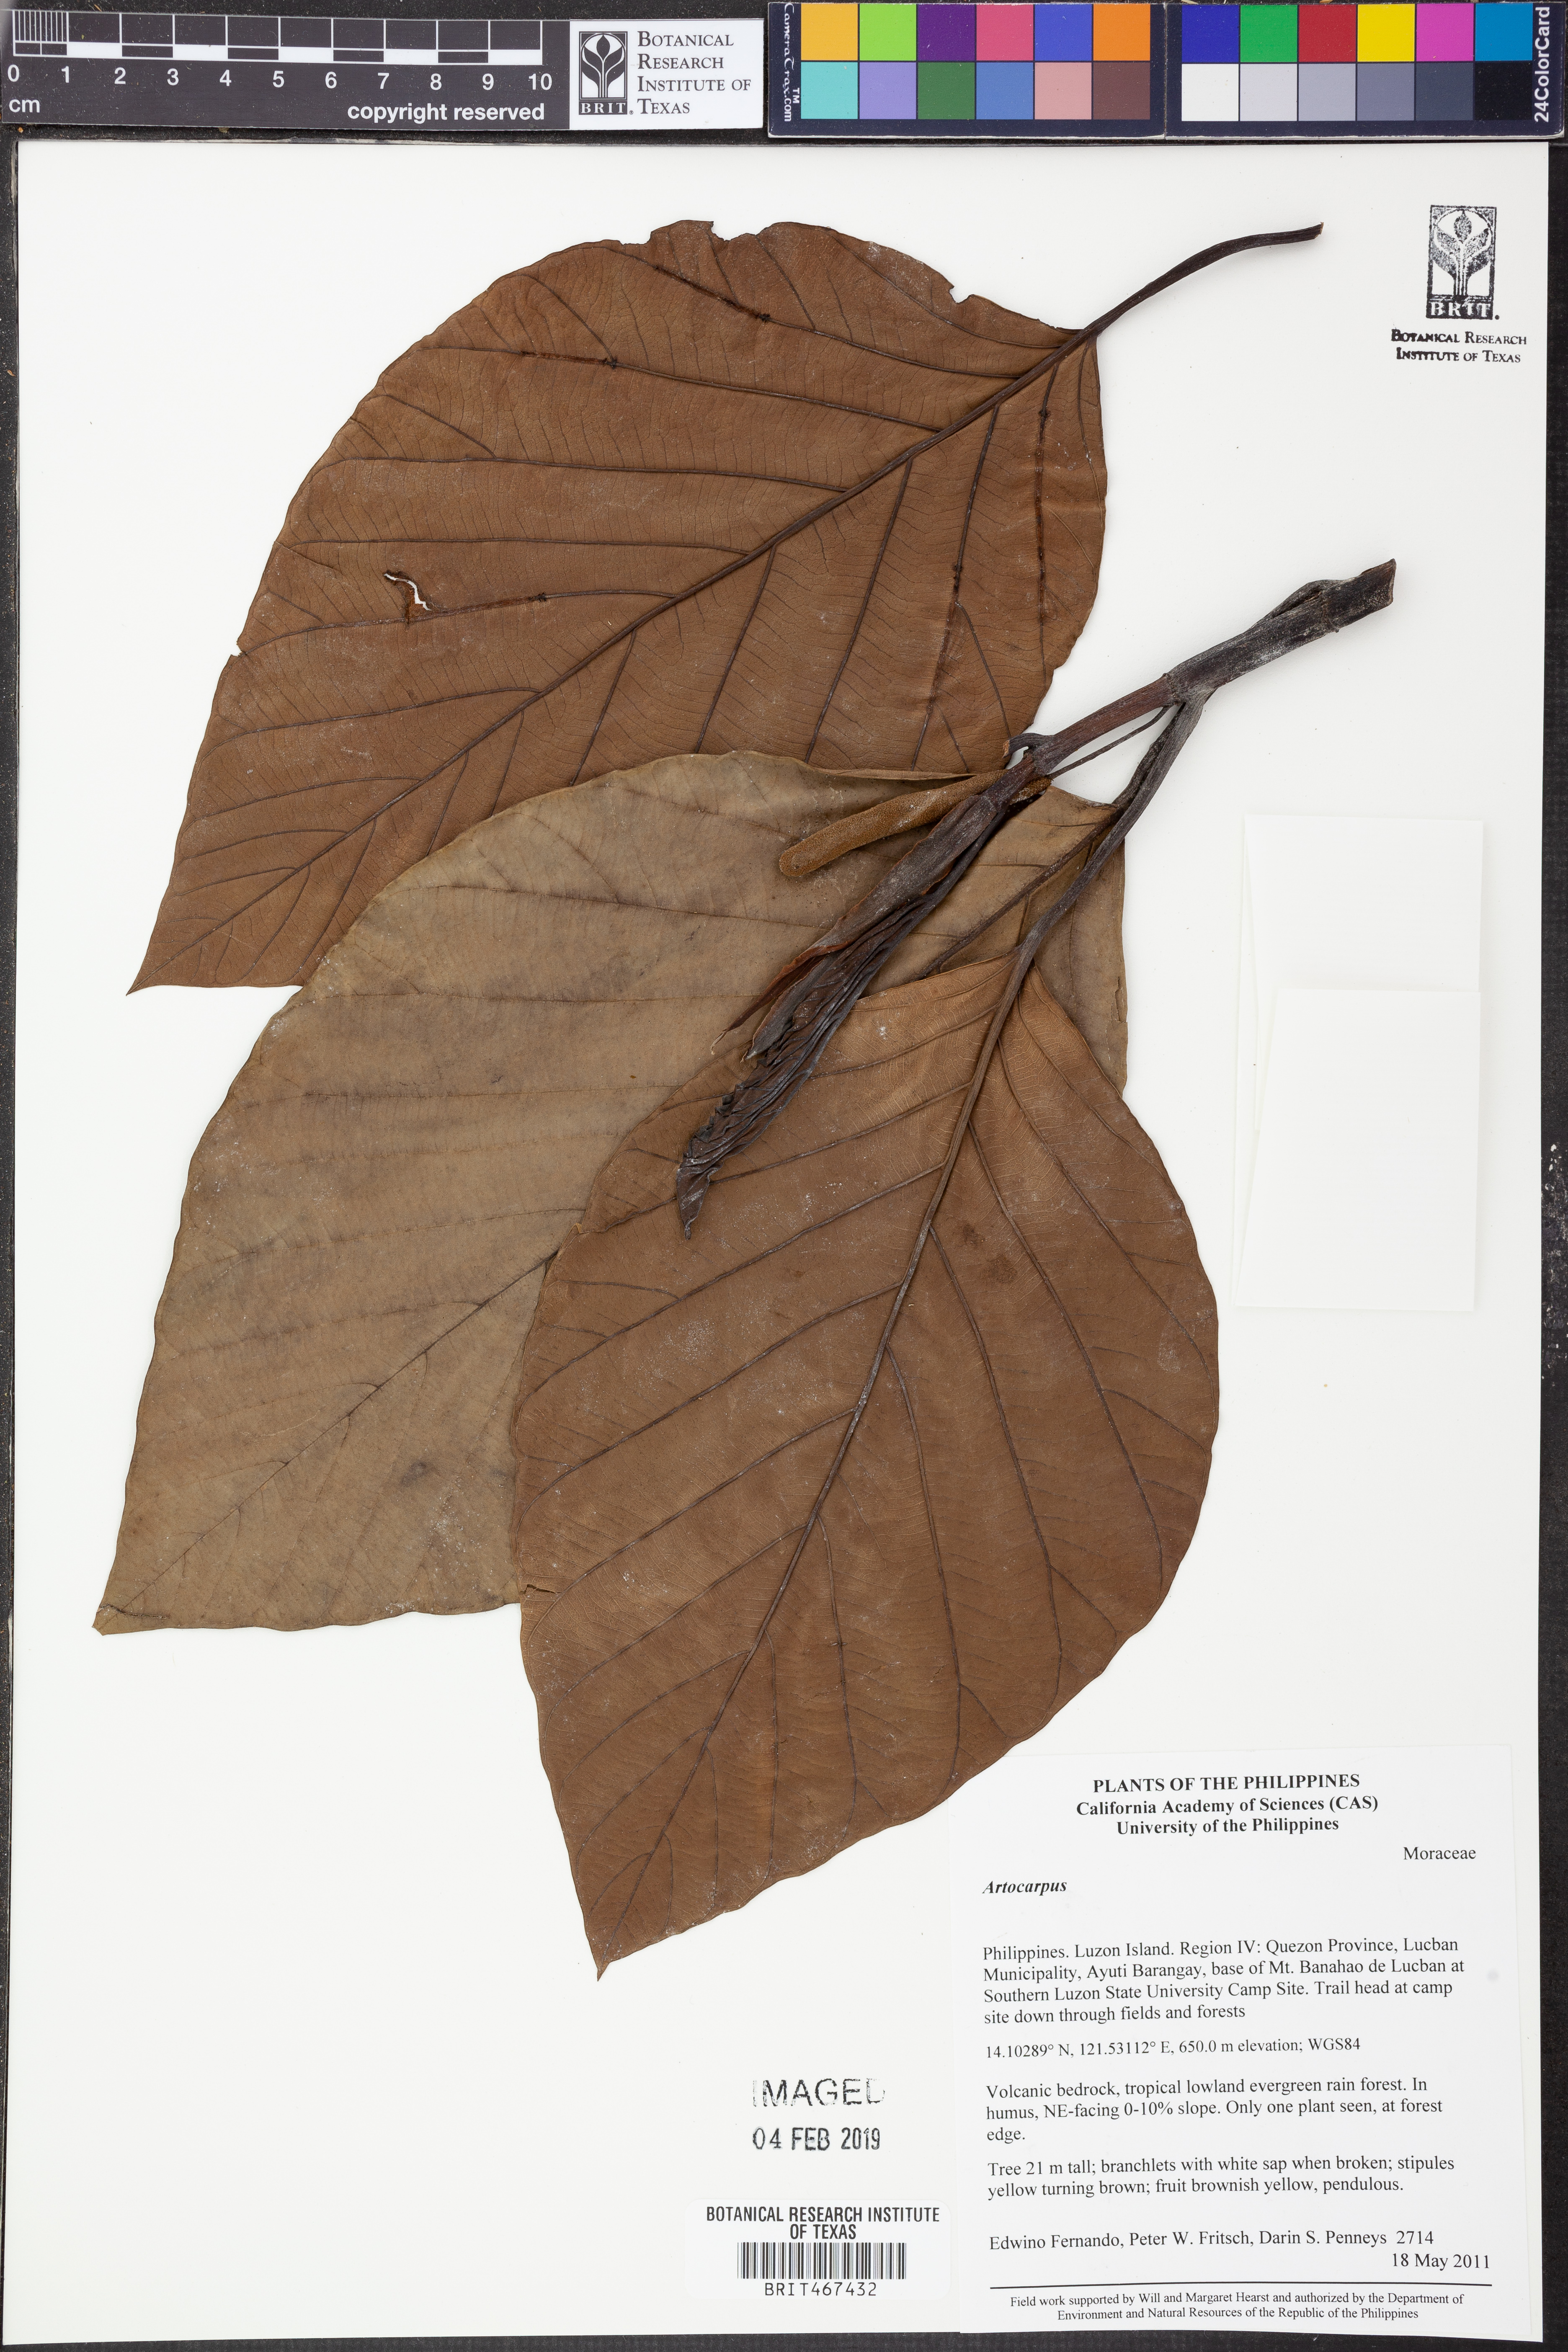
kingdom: Plantae
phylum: Tracheophyta
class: Magnoliopsida
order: Rosales
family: Moraceae
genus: Artocarpus
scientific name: Artocarpus
